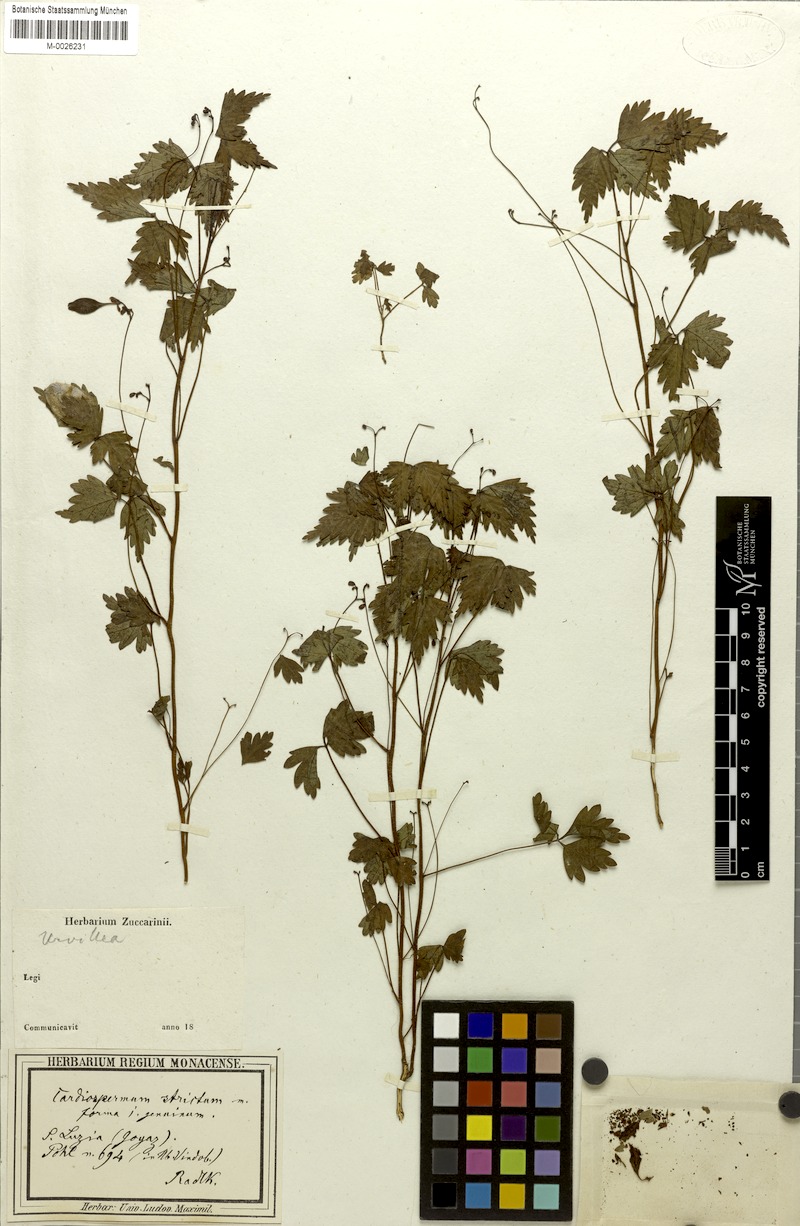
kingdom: Plantae
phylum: Tracheophyta
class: Magnoliopsida
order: Sapindales
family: Sapindaceae
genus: Cardiospermum
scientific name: Cardiospermum anomalum
